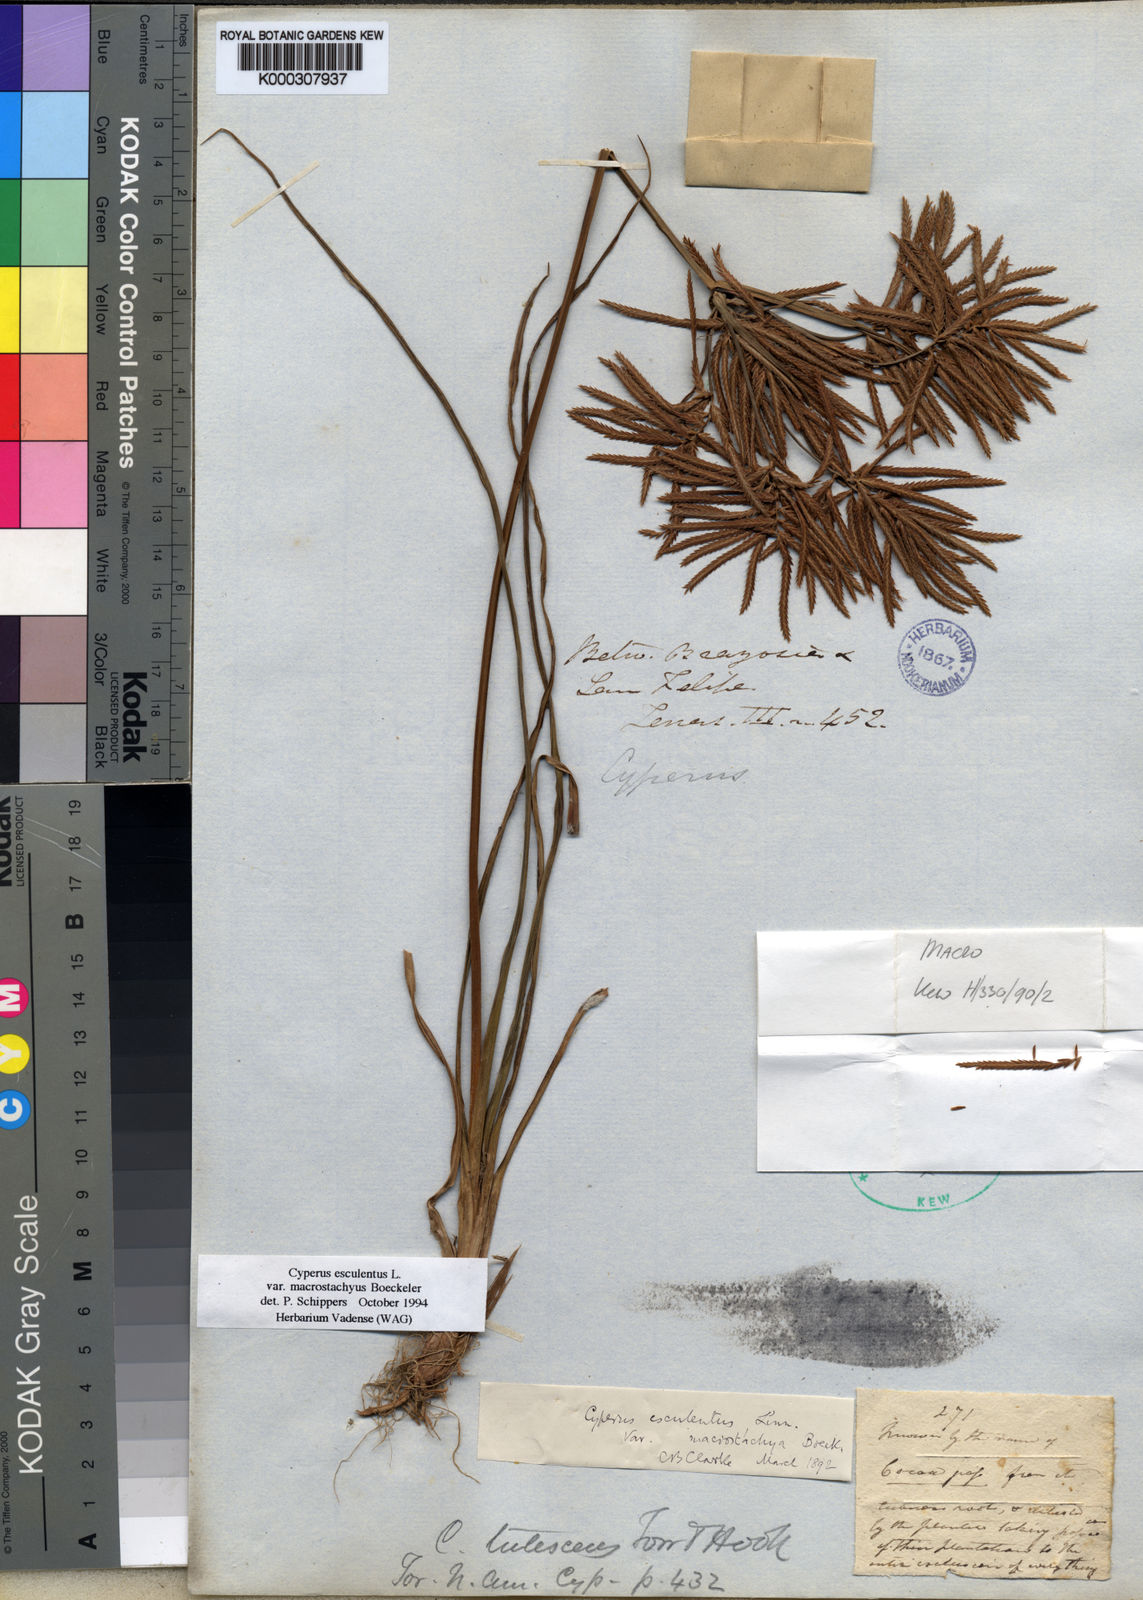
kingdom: Plantae
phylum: Tracheophyta
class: Liliopsida
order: Poales
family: Cyperaceae
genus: Cyperus
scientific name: Cyperus esculentus
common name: Yellow nutsedge
